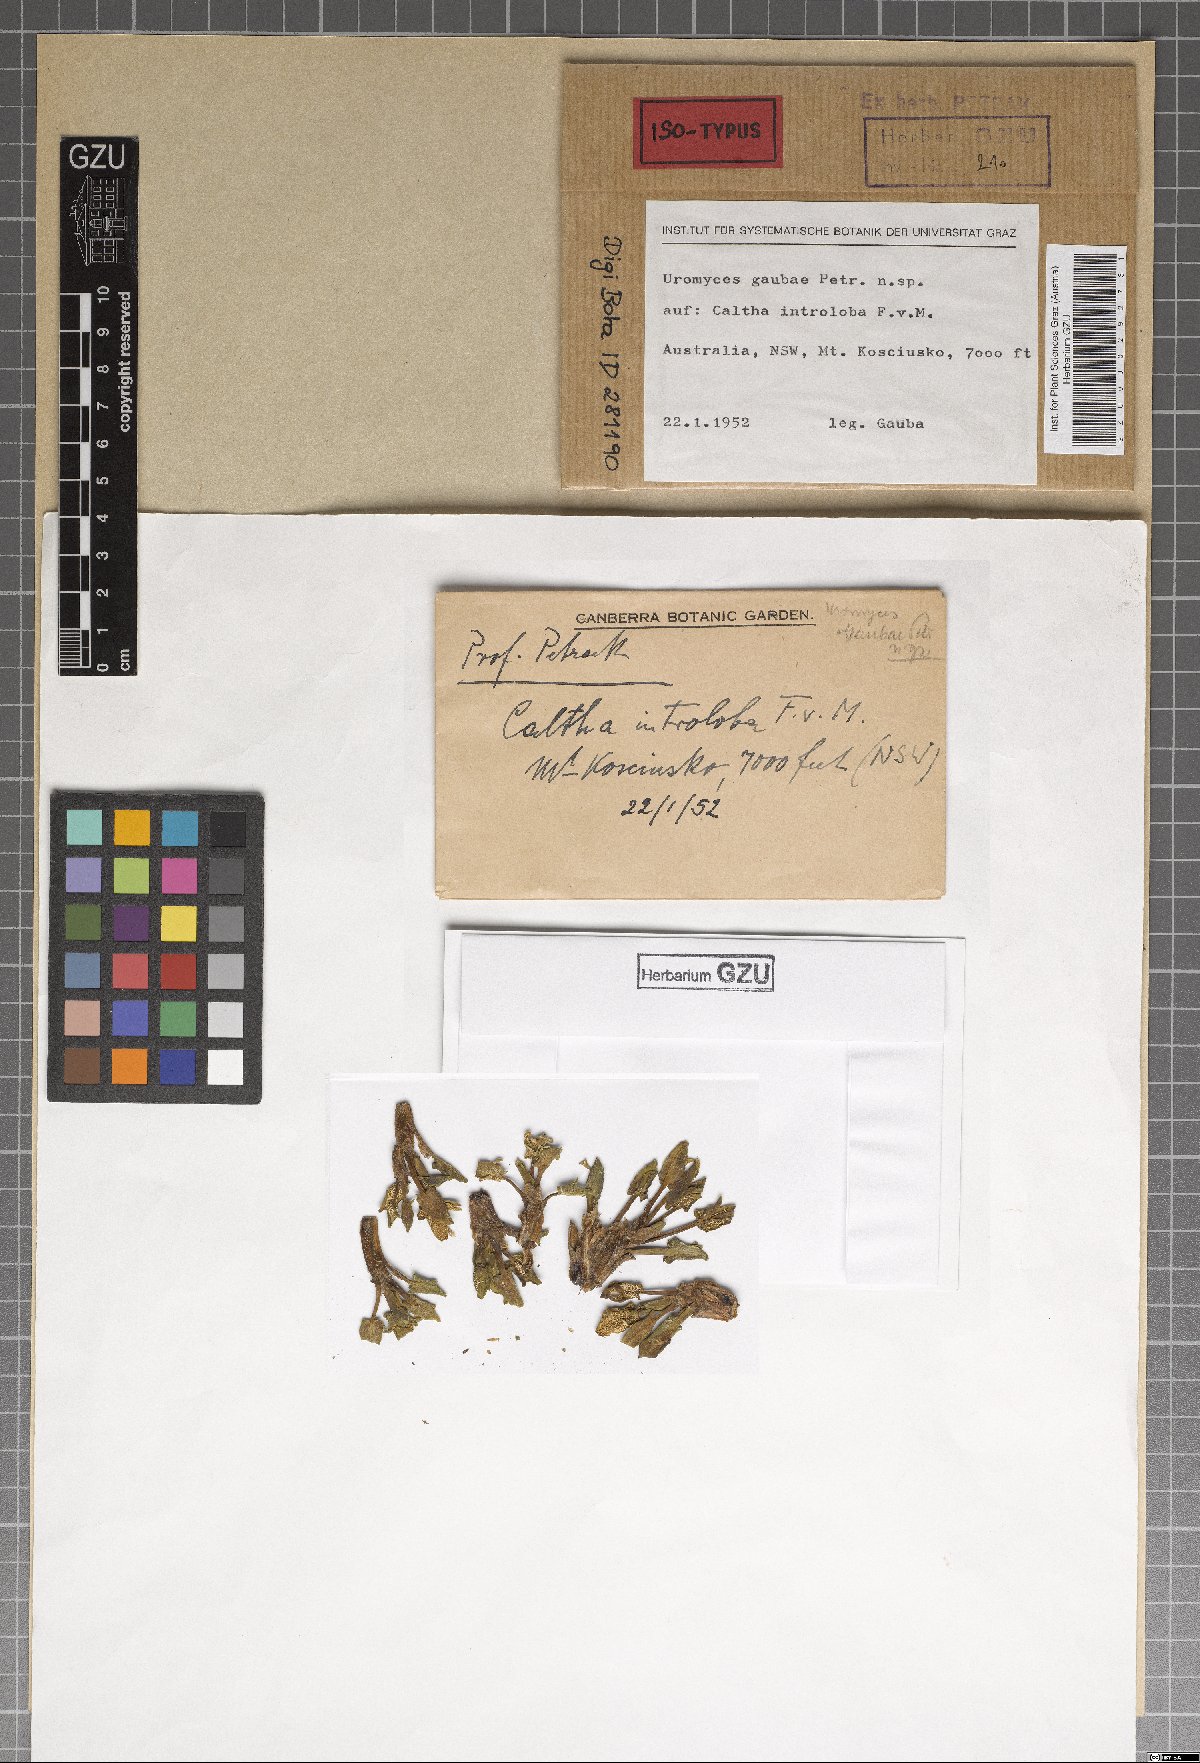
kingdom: Fungi
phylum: Basidiomycota
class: Pucciniomycetes
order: Pucciniales
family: Pucciniaceae
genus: Uromyces
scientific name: Uromyces gaubae
